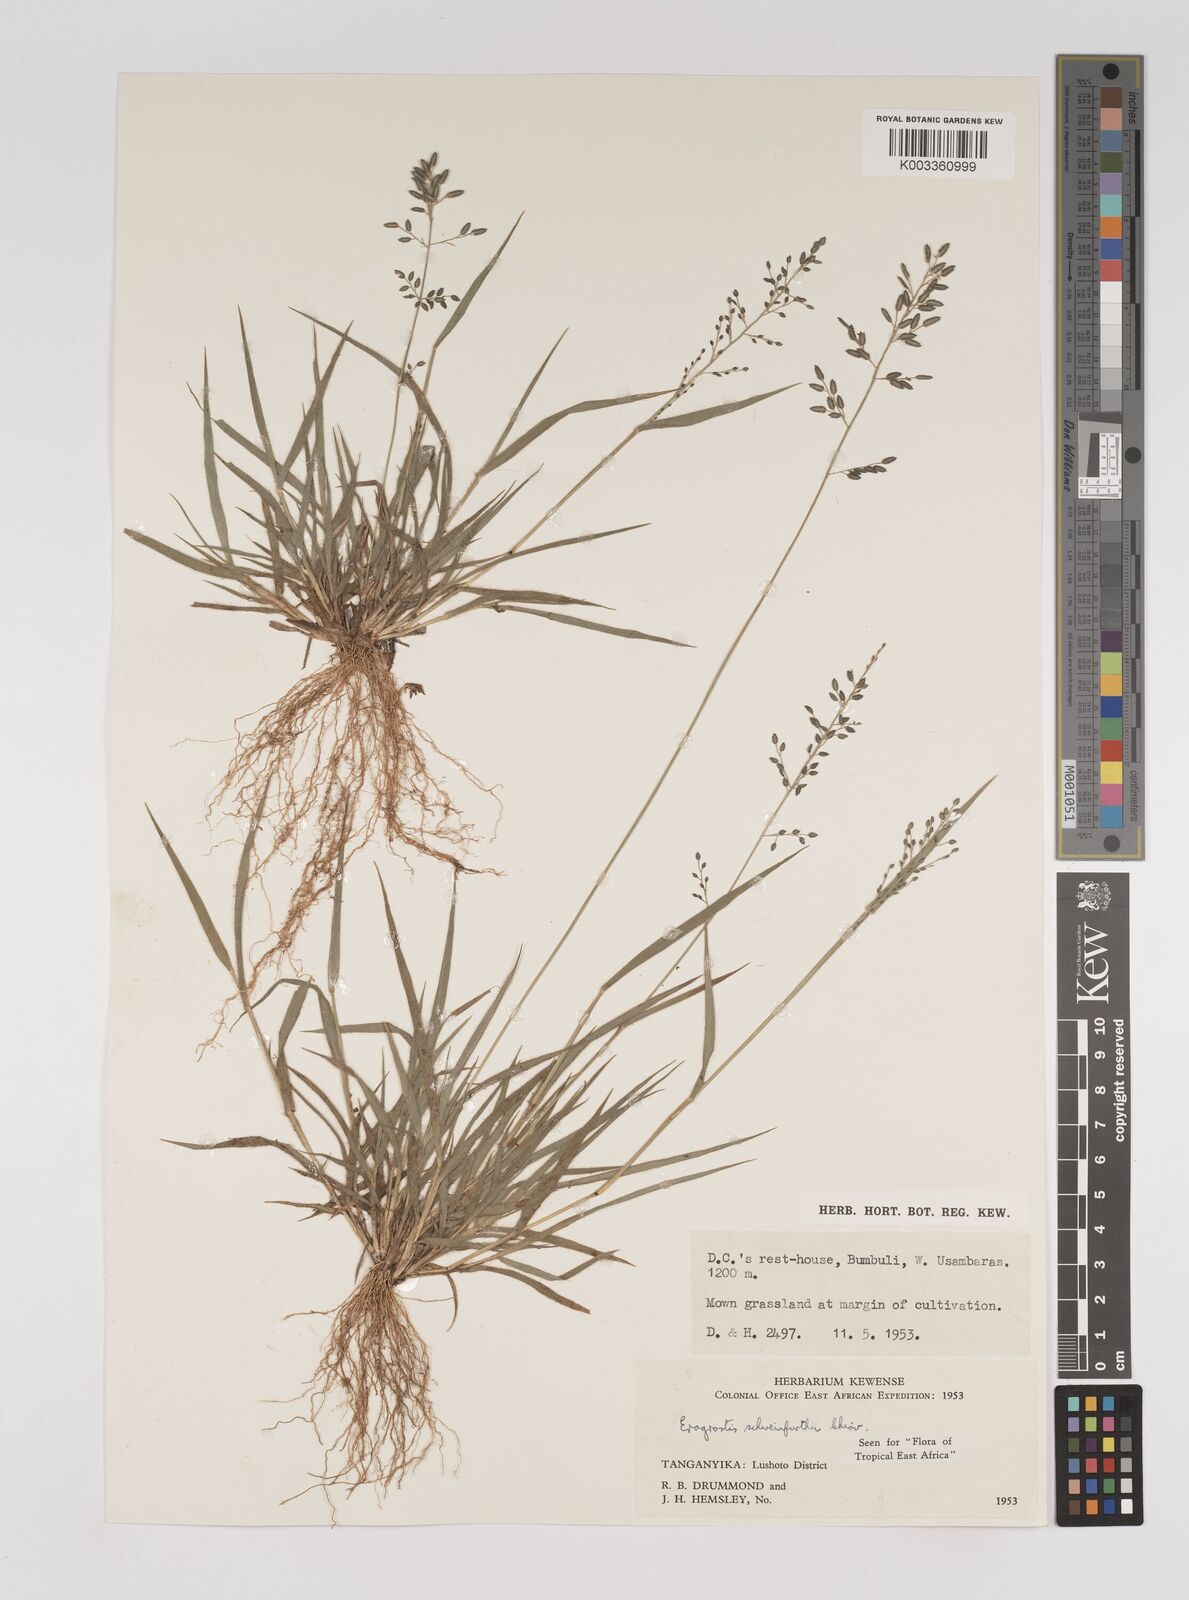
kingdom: Plantae
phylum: Tracheophyta
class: Liliopsida
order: Poales
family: Poaceae
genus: Eragrostis
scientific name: Eragrostis schweinfurthii
